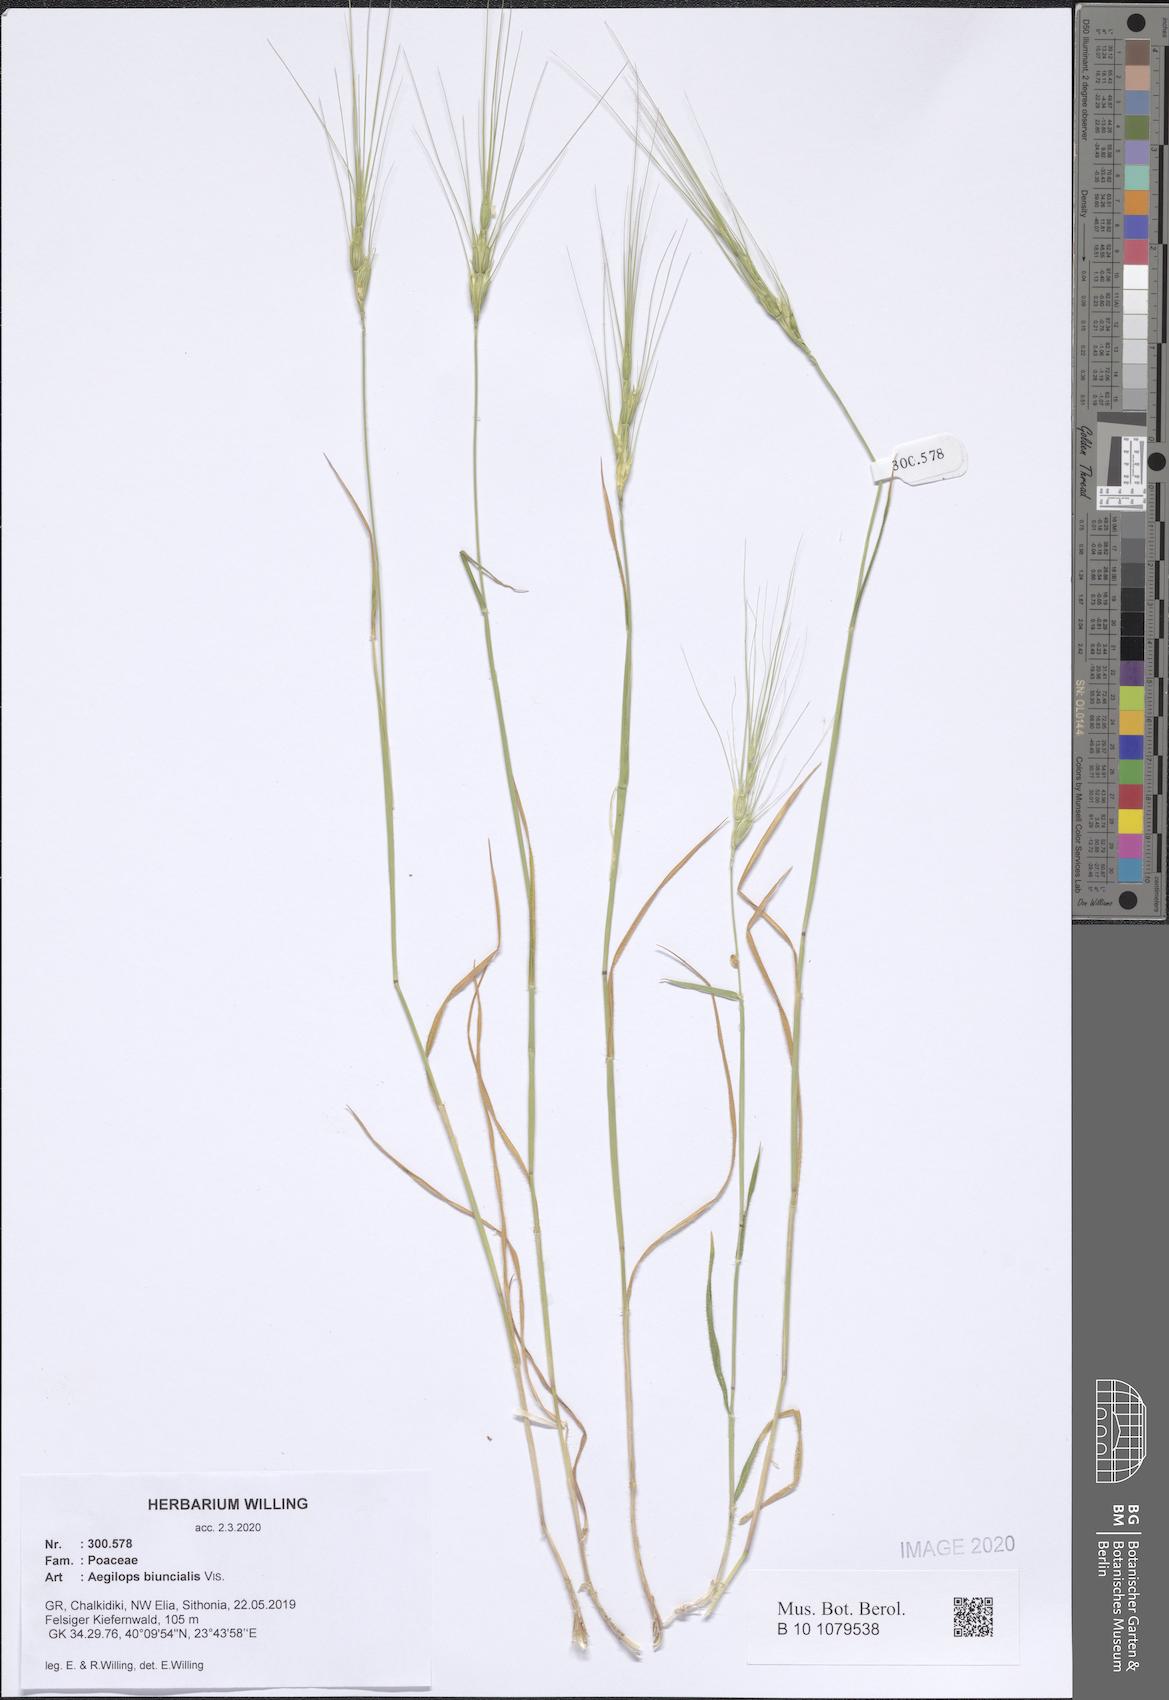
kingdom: Plantae
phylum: Tracheophyta
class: Liliopsida
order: Poales
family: Poaceae
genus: Aegilops
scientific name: Aegilops biuncialis
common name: Mediterranean aegilops
